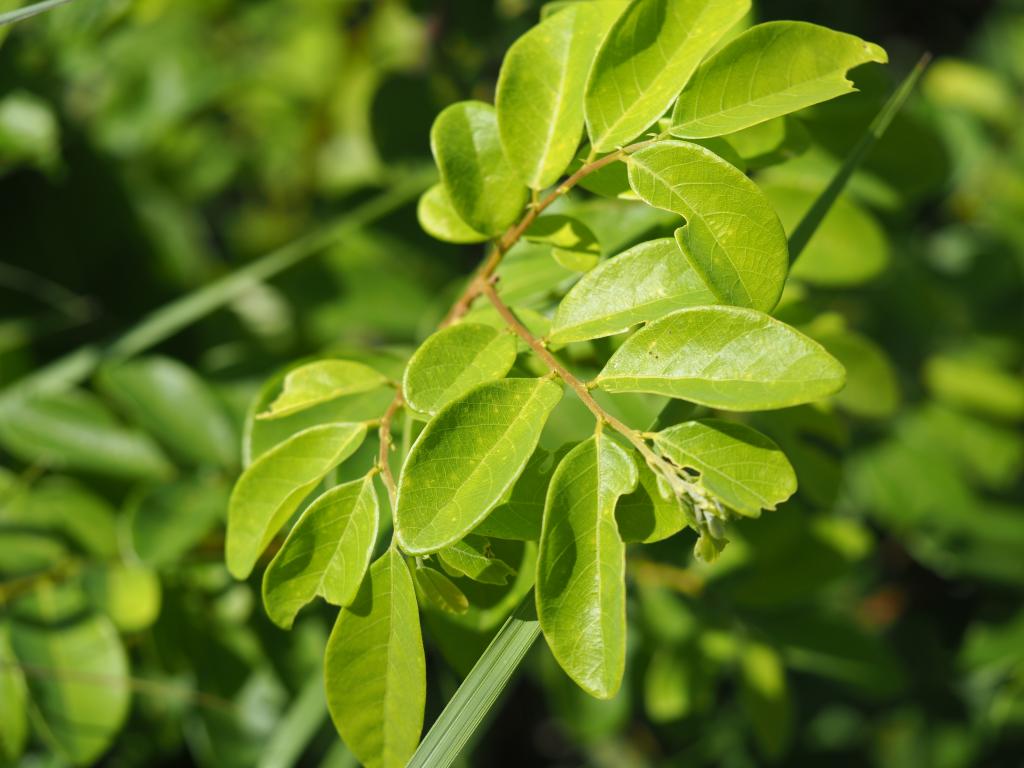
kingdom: Plantae
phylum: Tracheophyta
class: Magnoliopsida
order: Malpighiales
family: Phyllanthaceae
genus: Bridelia
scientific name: Bridelia tomentosa
